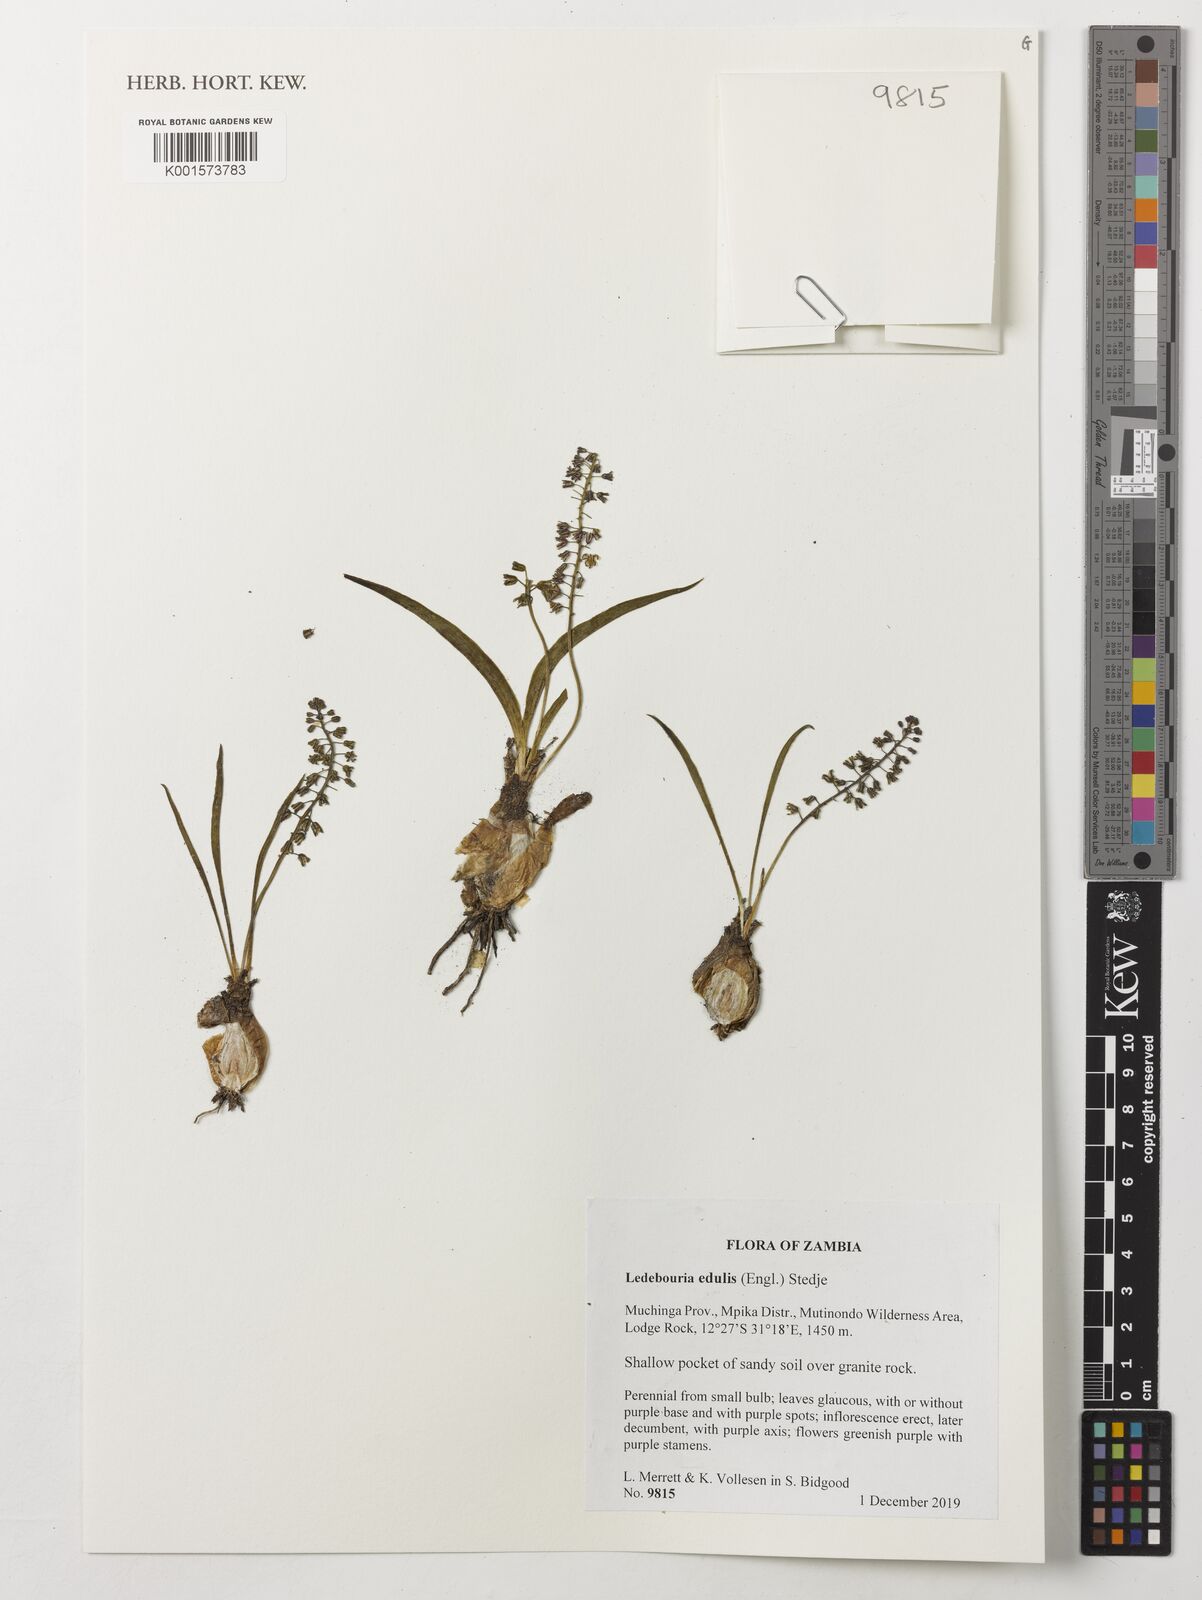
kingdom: Plantae
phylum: Tracheophyta
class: Liliopsida
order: Asparagales
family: Asparagaceae
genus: Ledebouria
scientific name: Ledebouria edulis
